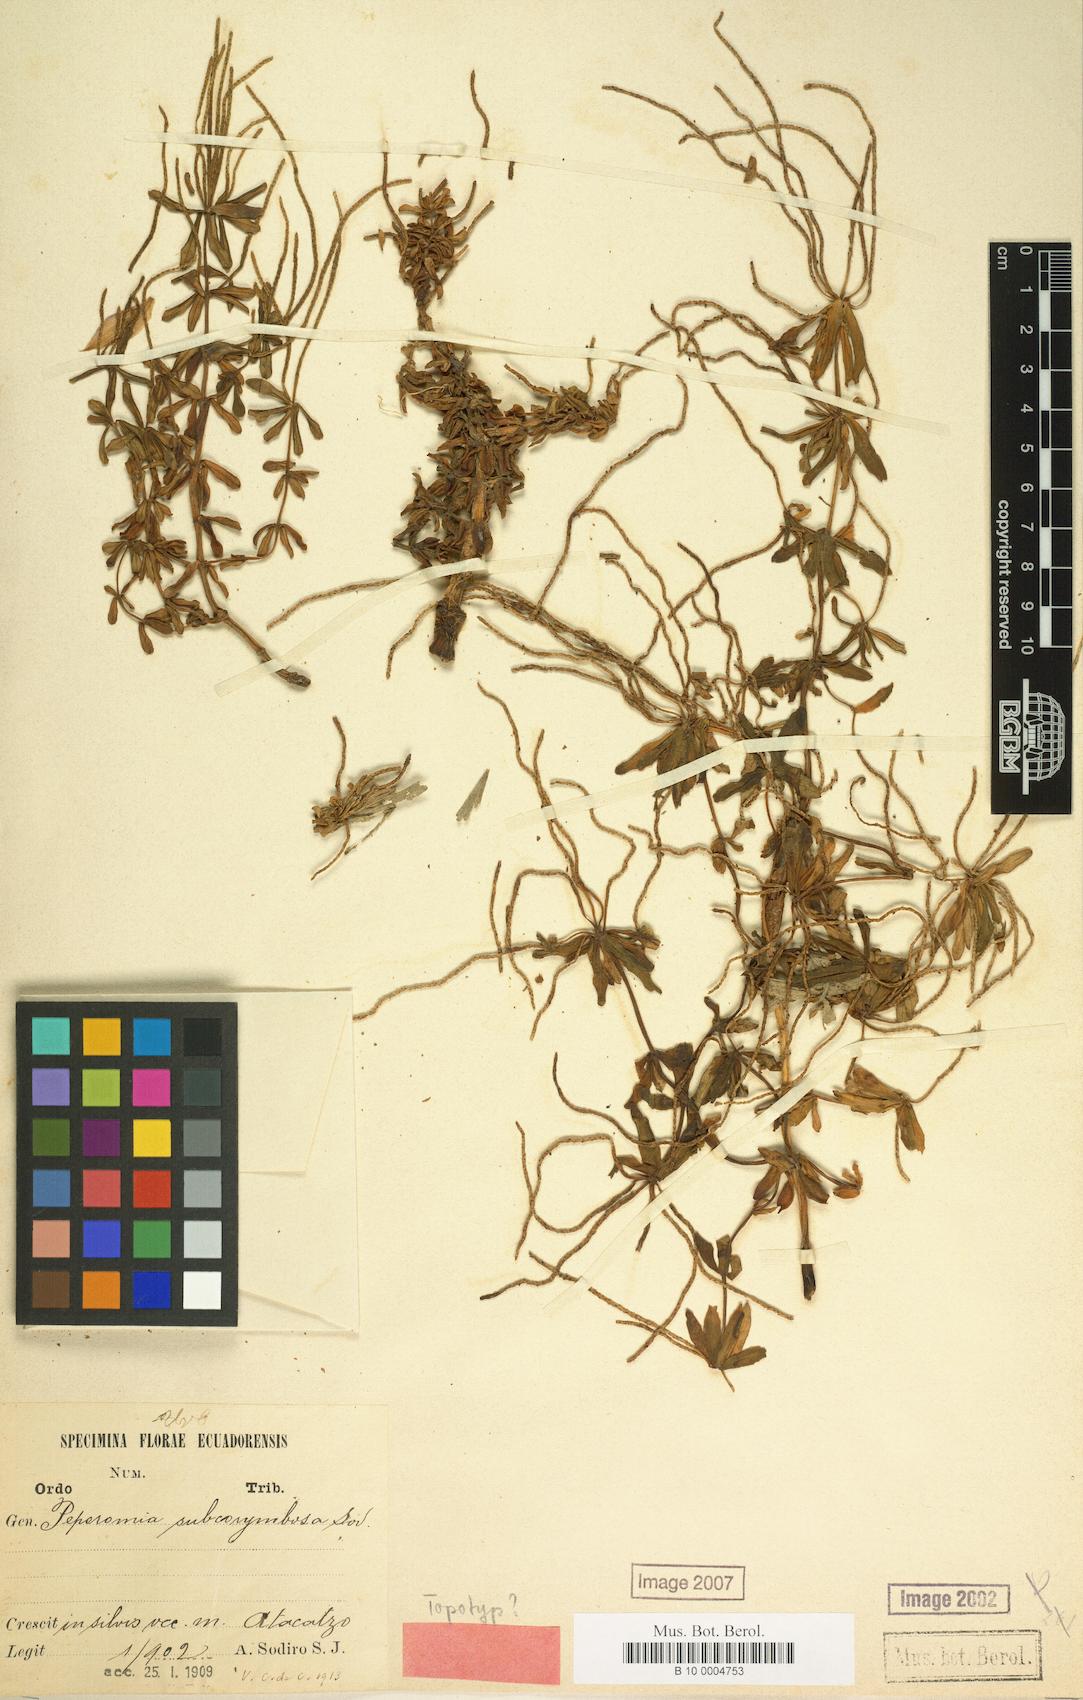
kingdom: Plantae
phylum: Tracheophyta
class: Magnoliopsida
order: Piperales
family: Piperaceae
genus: Peperomia
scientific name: Peperomia galioides
